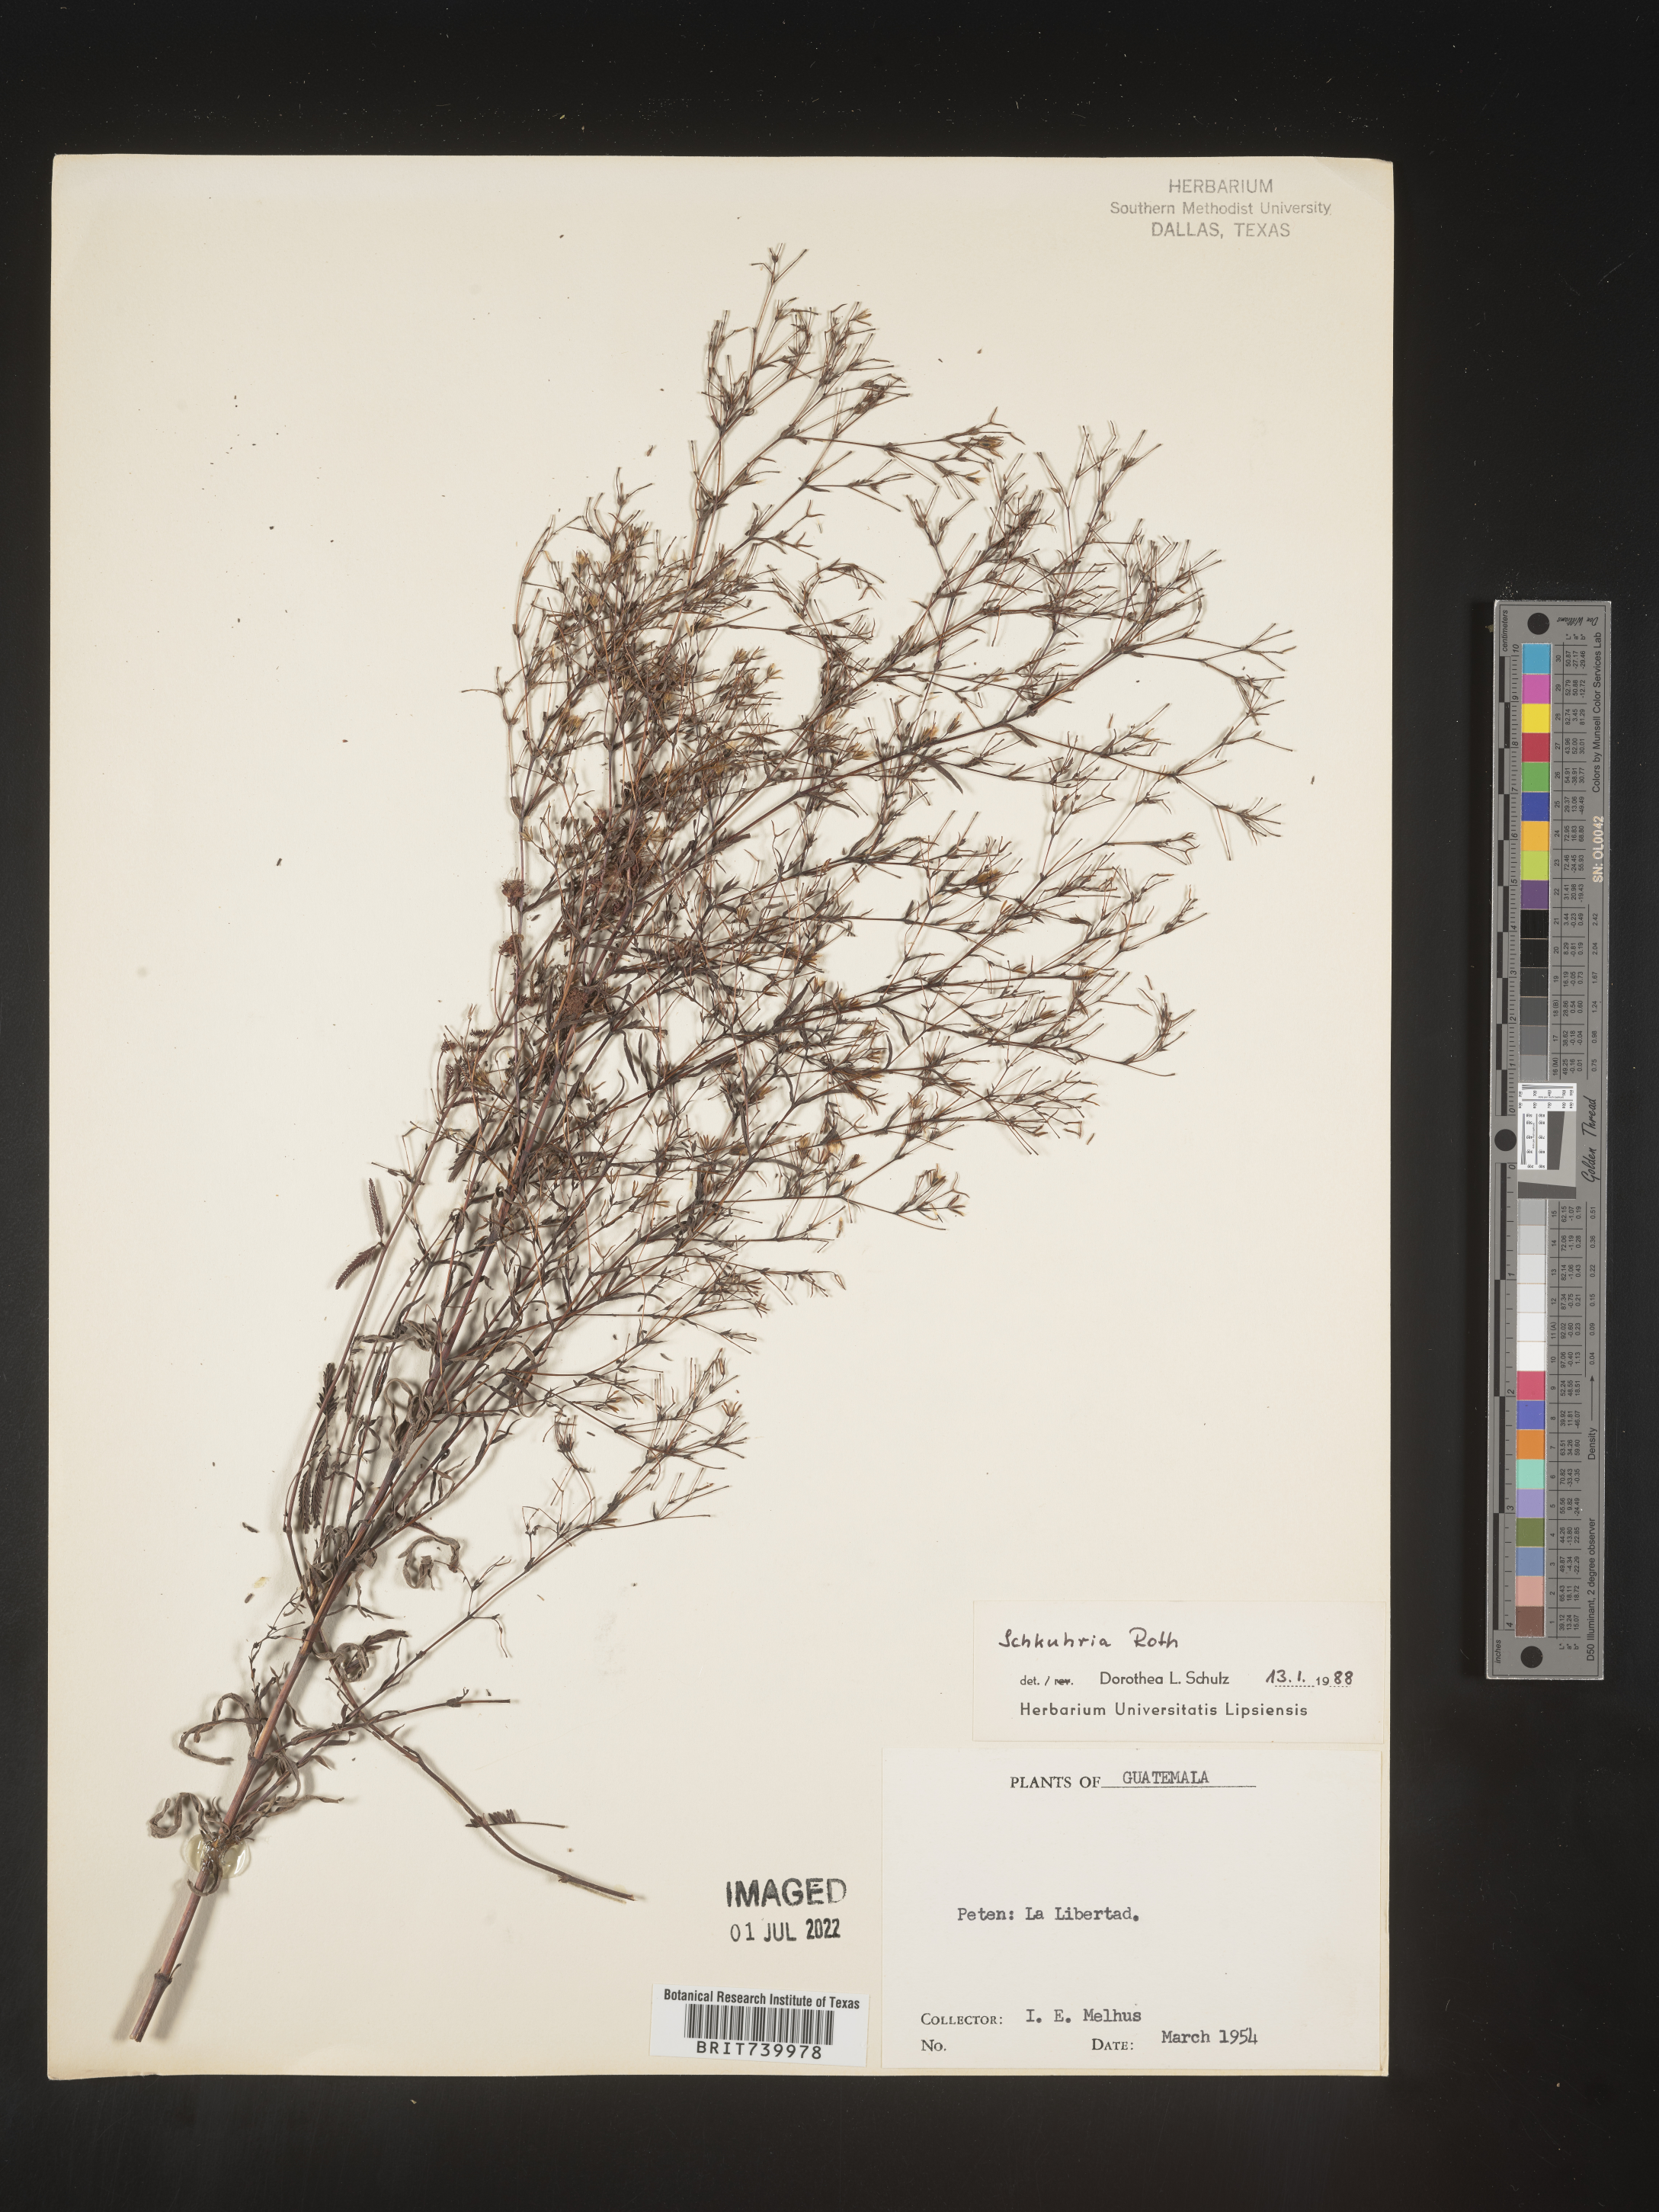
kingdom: Plantae
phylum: Tracheophyta
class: Magnoliopsida
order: Asterales
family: Asteraceae
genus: Schkuhria
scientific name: Schkuhria
